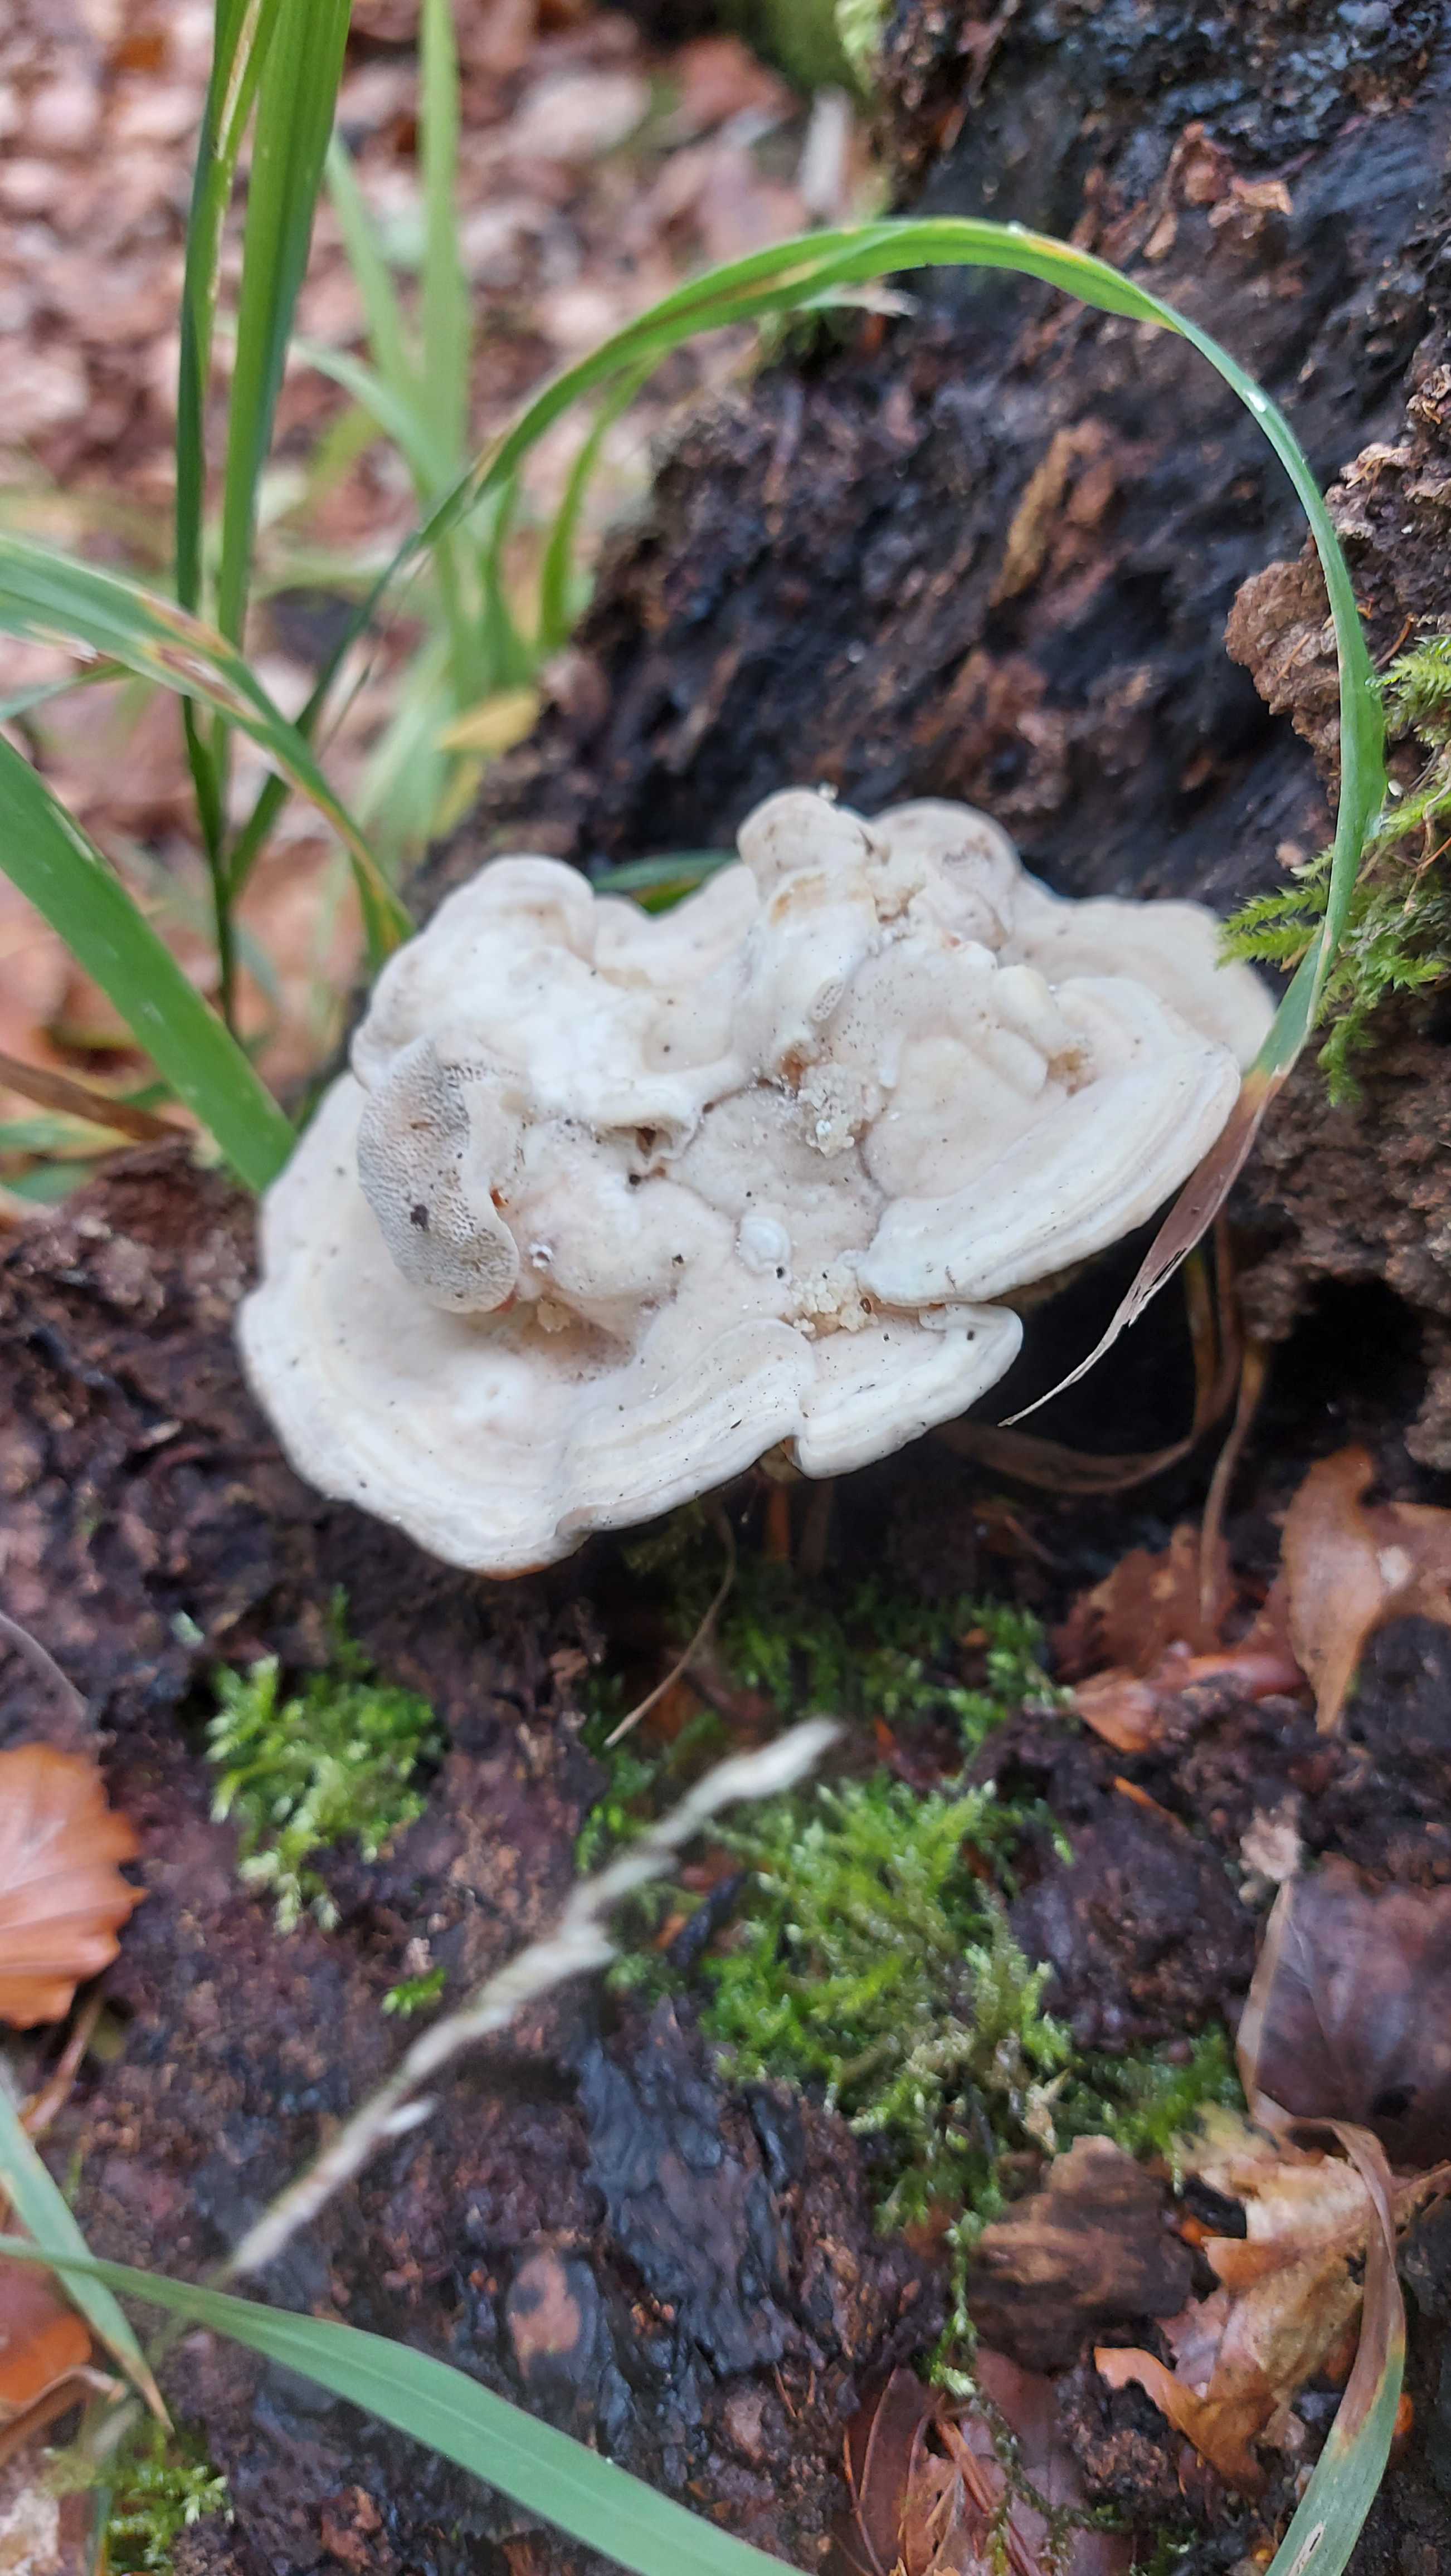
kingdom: Fungi
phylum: Basidiomycota
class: Agaricomycetes
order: Polyporales
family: Polyporaceae
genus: Trametes
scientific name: Trametes gibbosa
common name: puklet læderporesvamp
